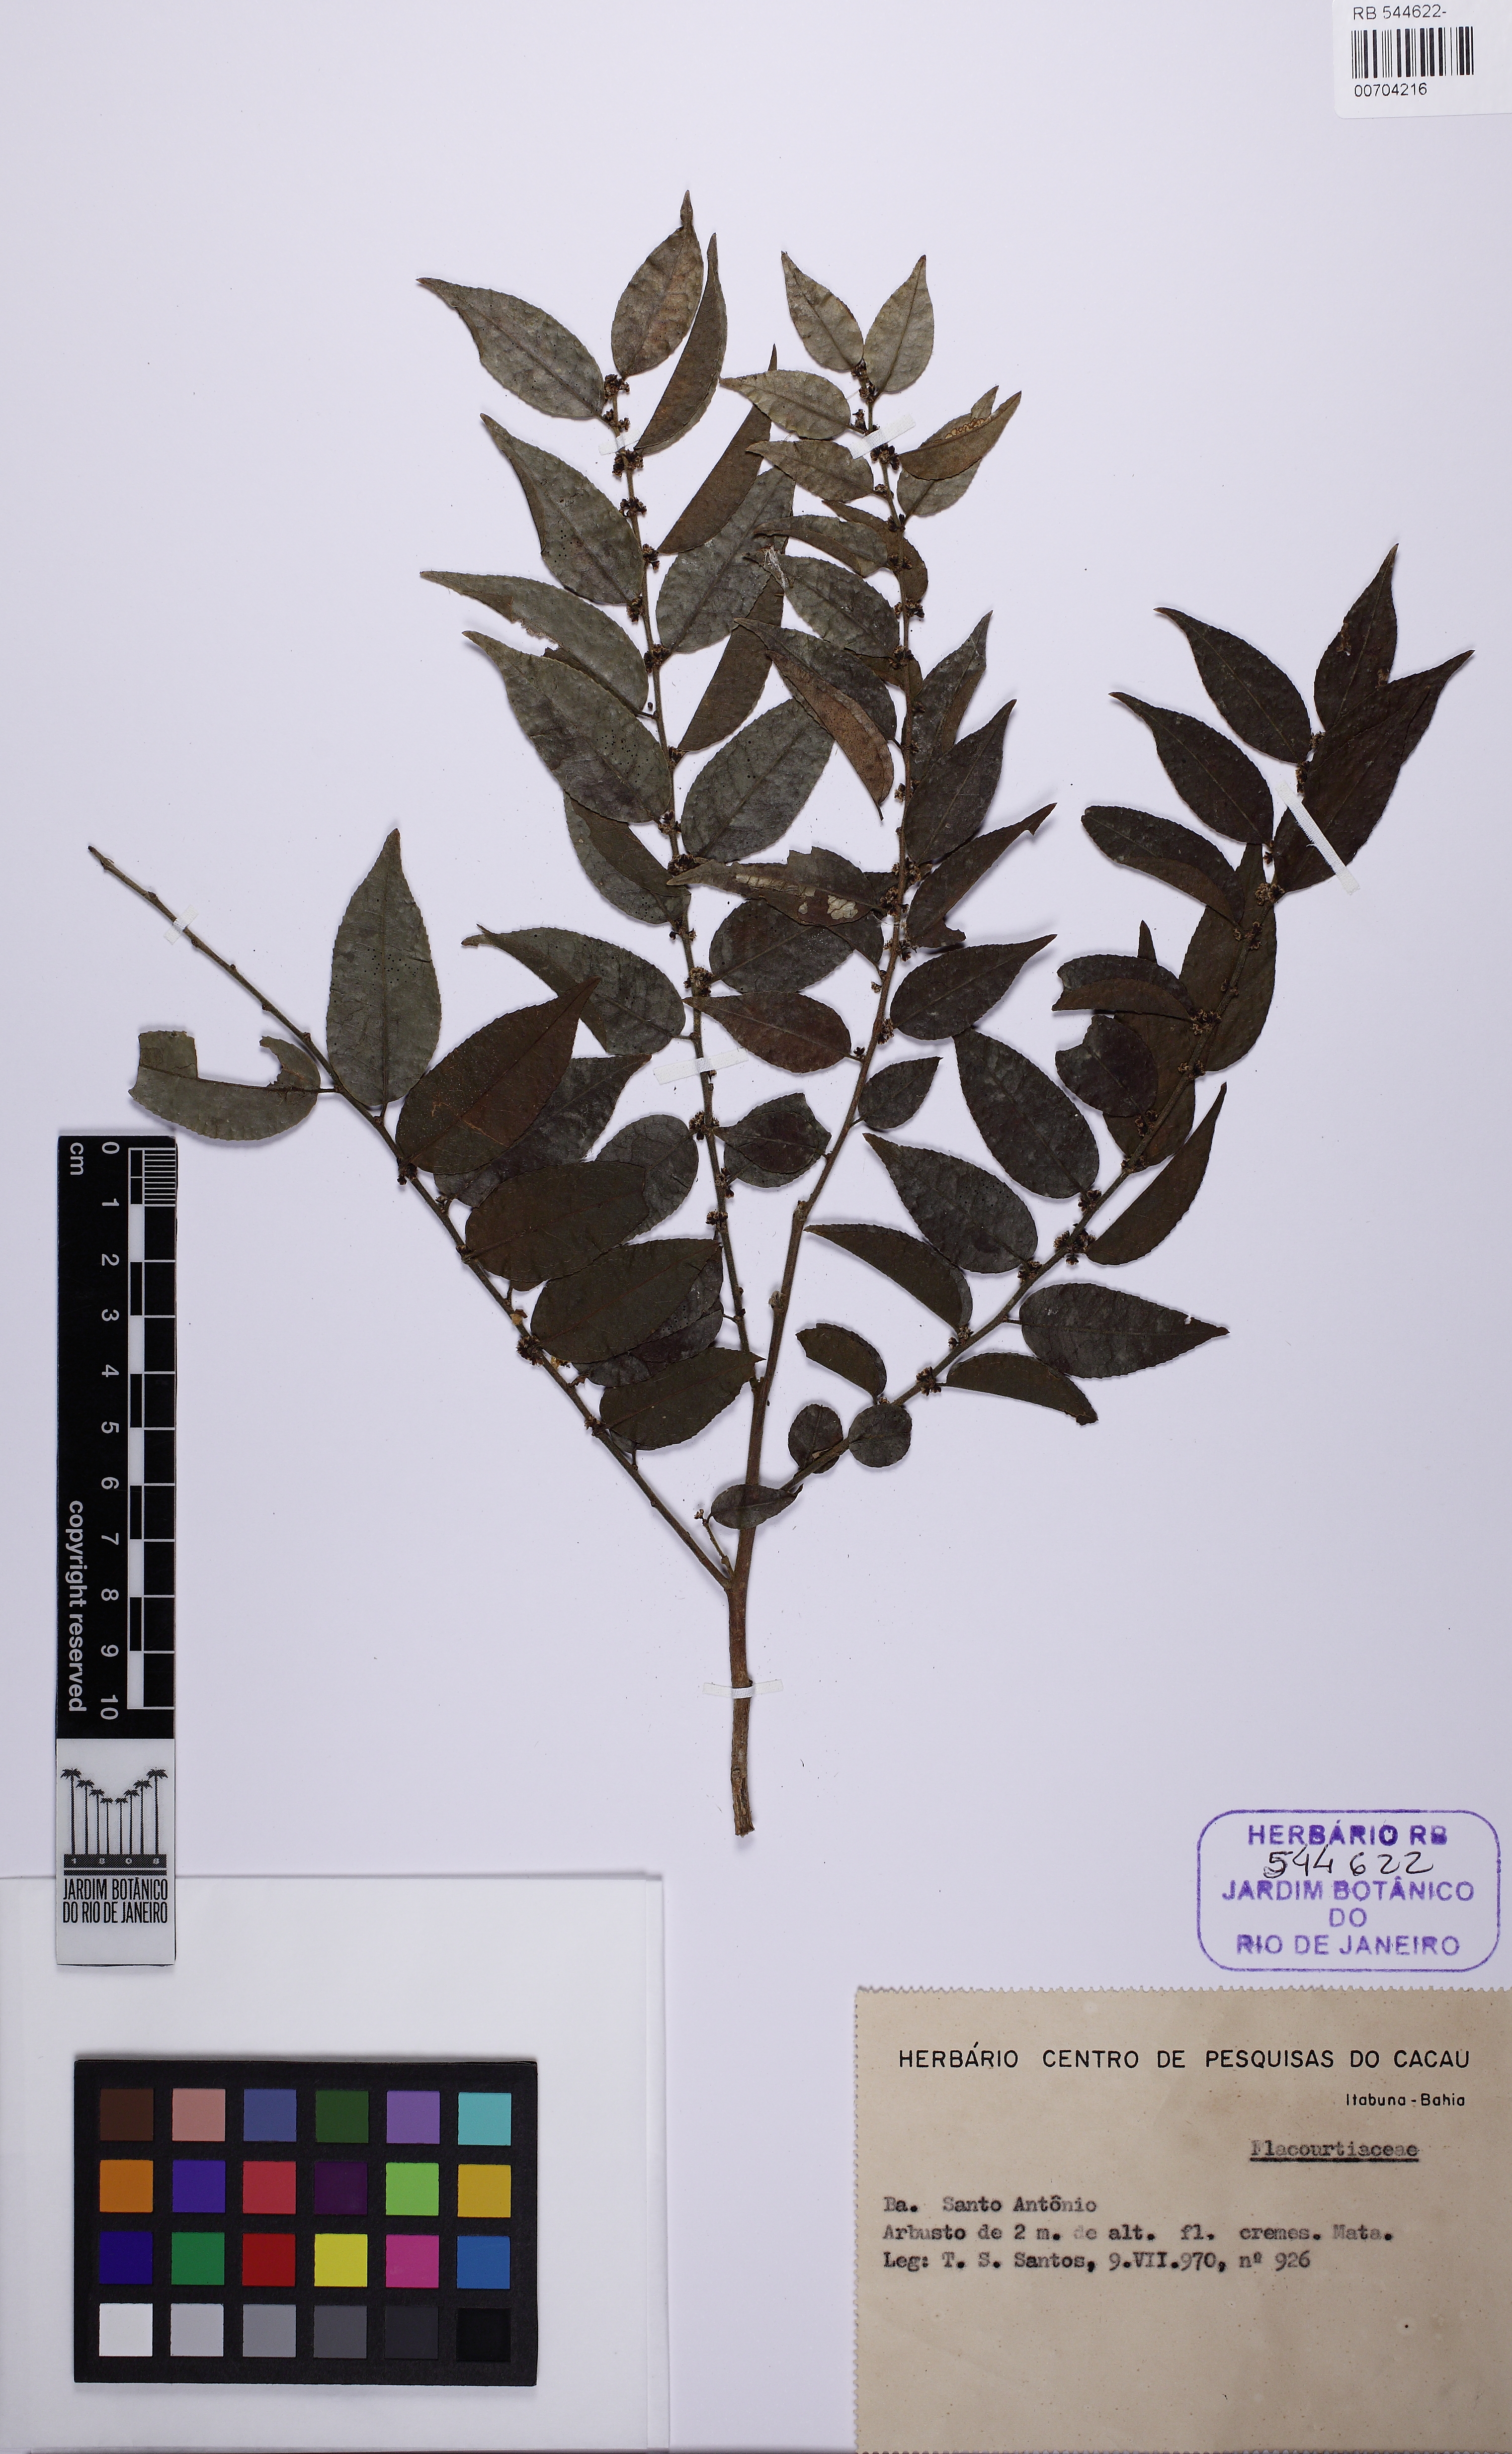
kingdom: Plantae
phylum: Tracheophyta
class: Magnoliopsida
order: Malpighiales
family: Salicaceae
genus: Casearia
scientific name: Casearia sylvestris
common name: Wild sage
